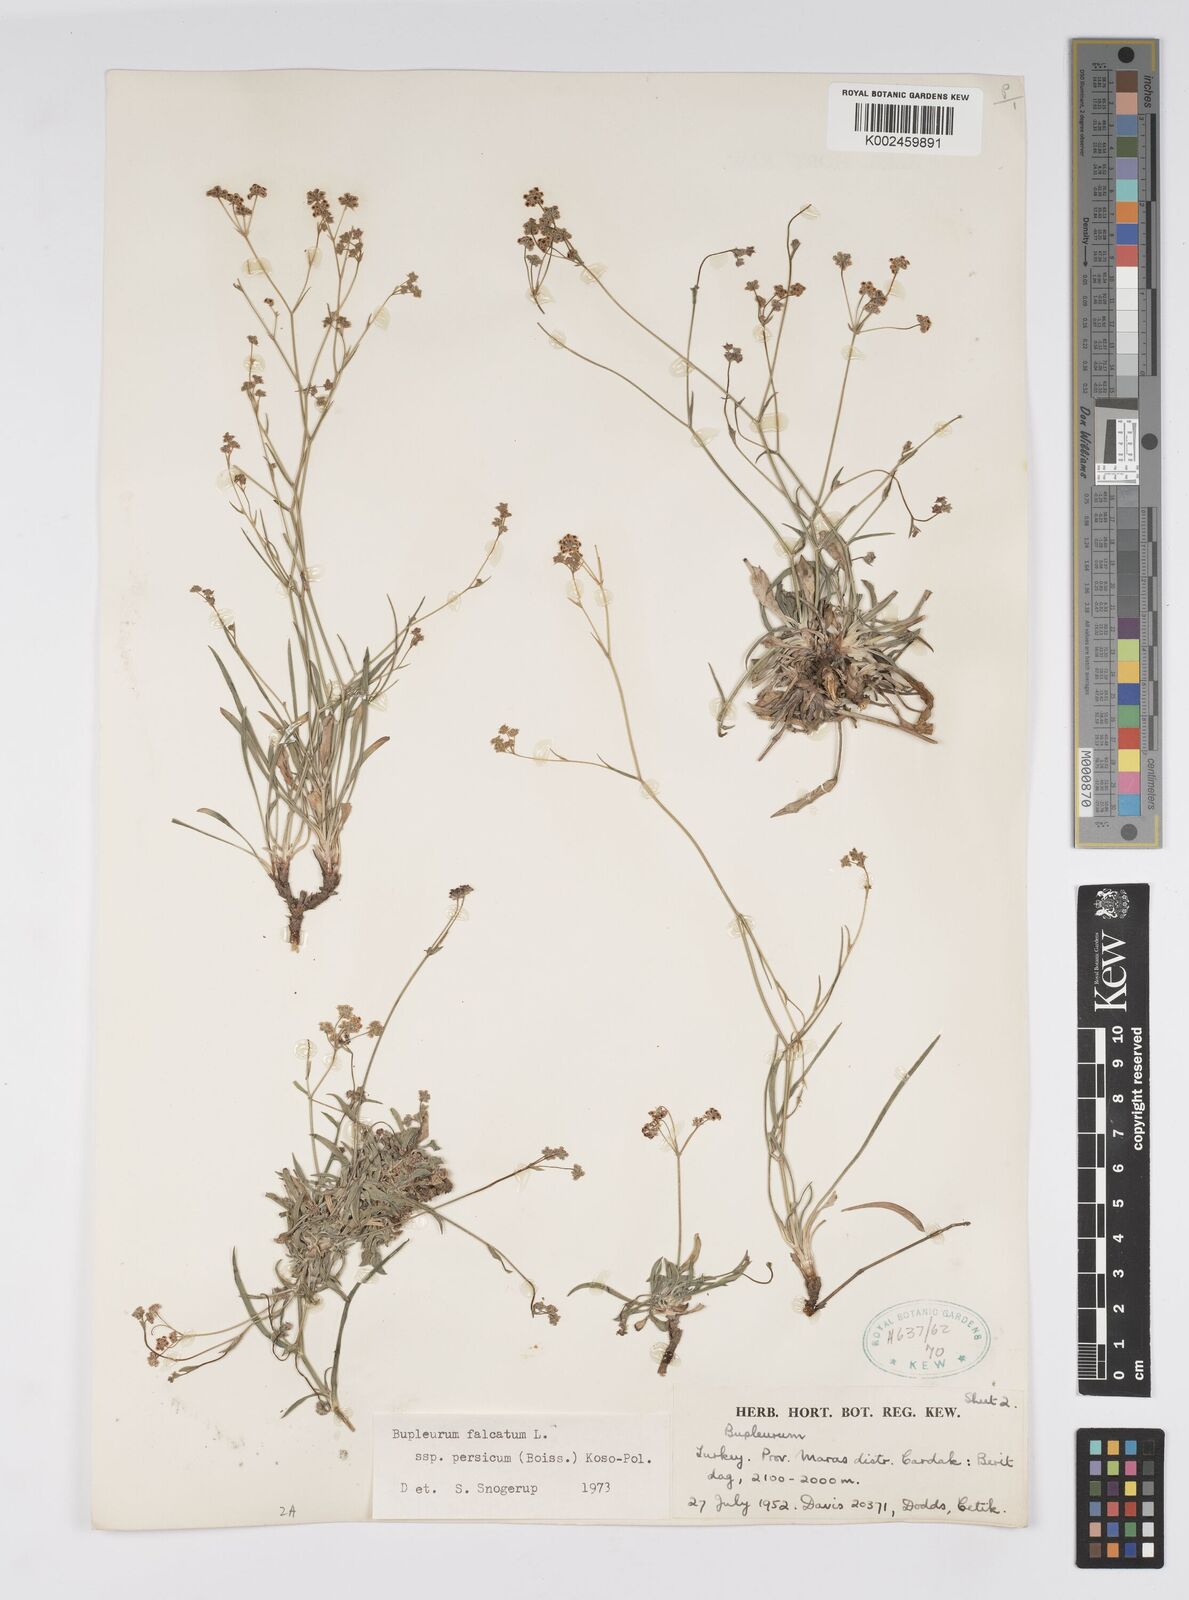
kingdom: Plantae
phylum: Tracheophyta
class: Magnoliopsida
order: Apiales
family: Apiaceae
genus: Bupleurum
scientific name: Bupleurum persicum
